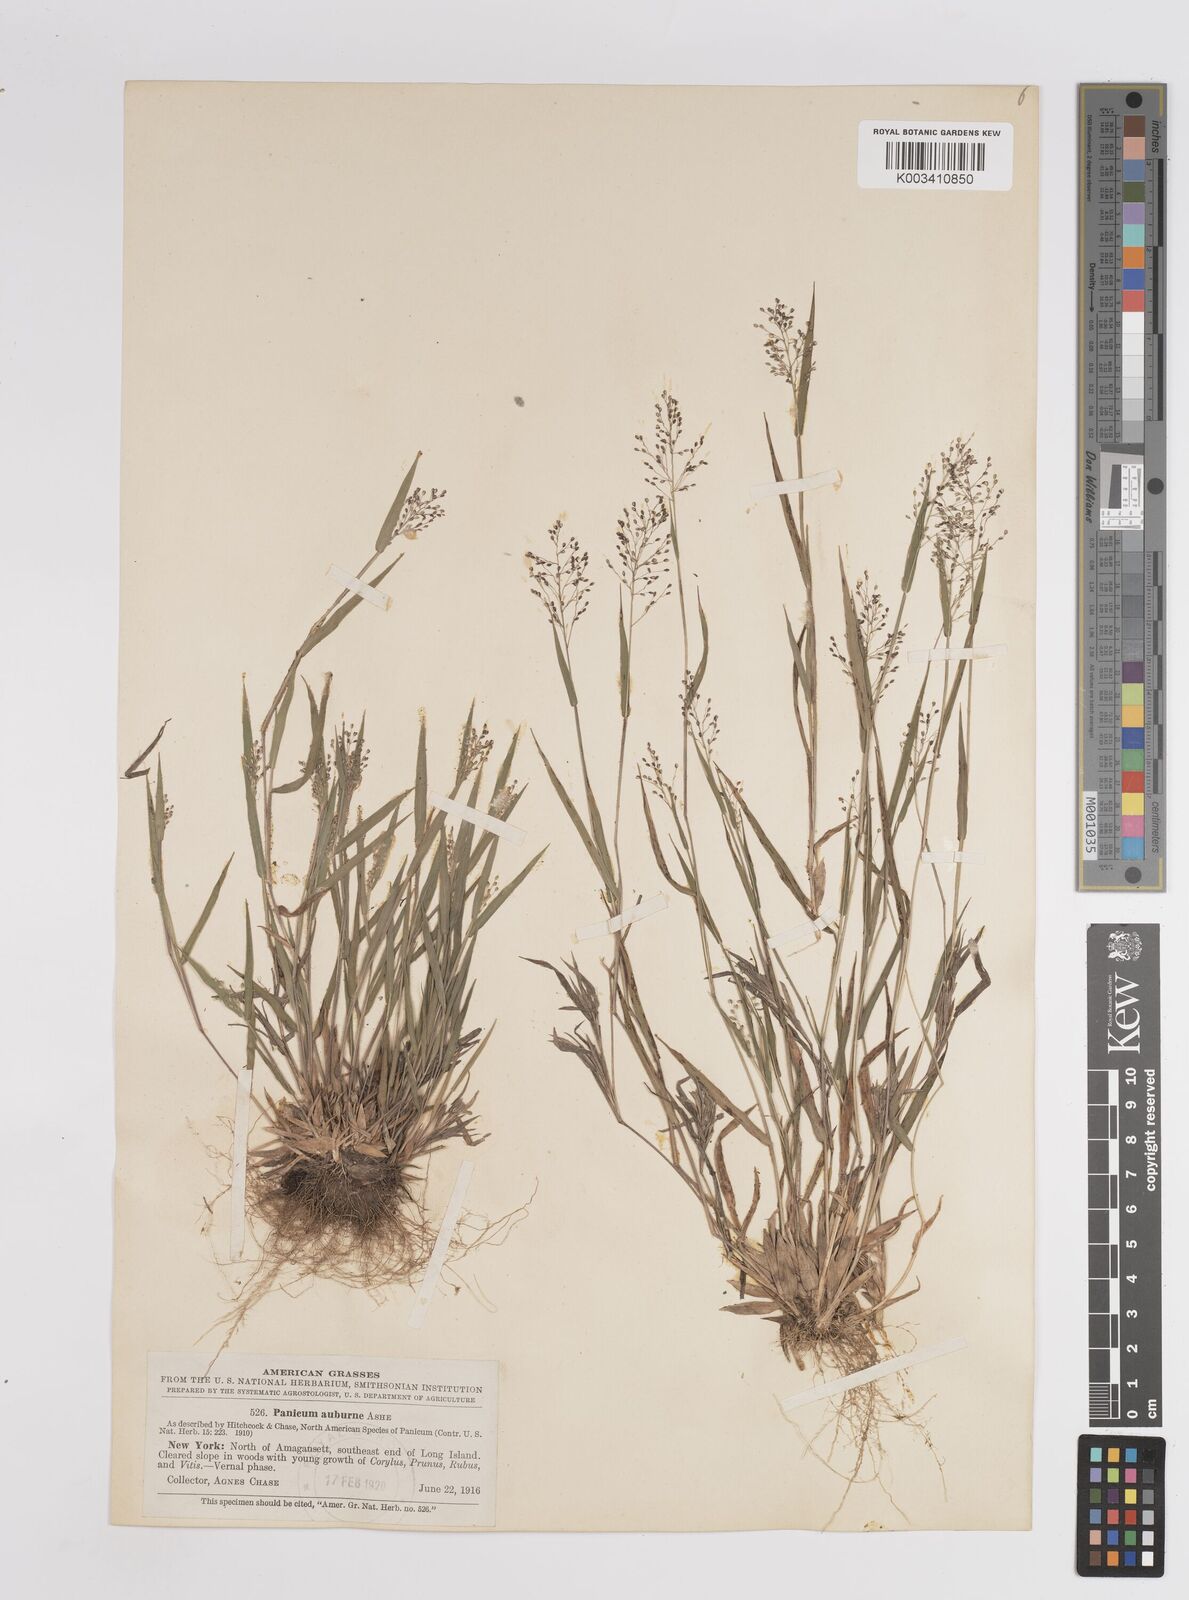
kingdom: Plantae
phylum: Tracheophyta
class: Liliopsida
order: Poales
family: Poaceae
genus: Dichanthelium
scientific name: Dichanthelium acuminatum
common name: Hairy panic grass
